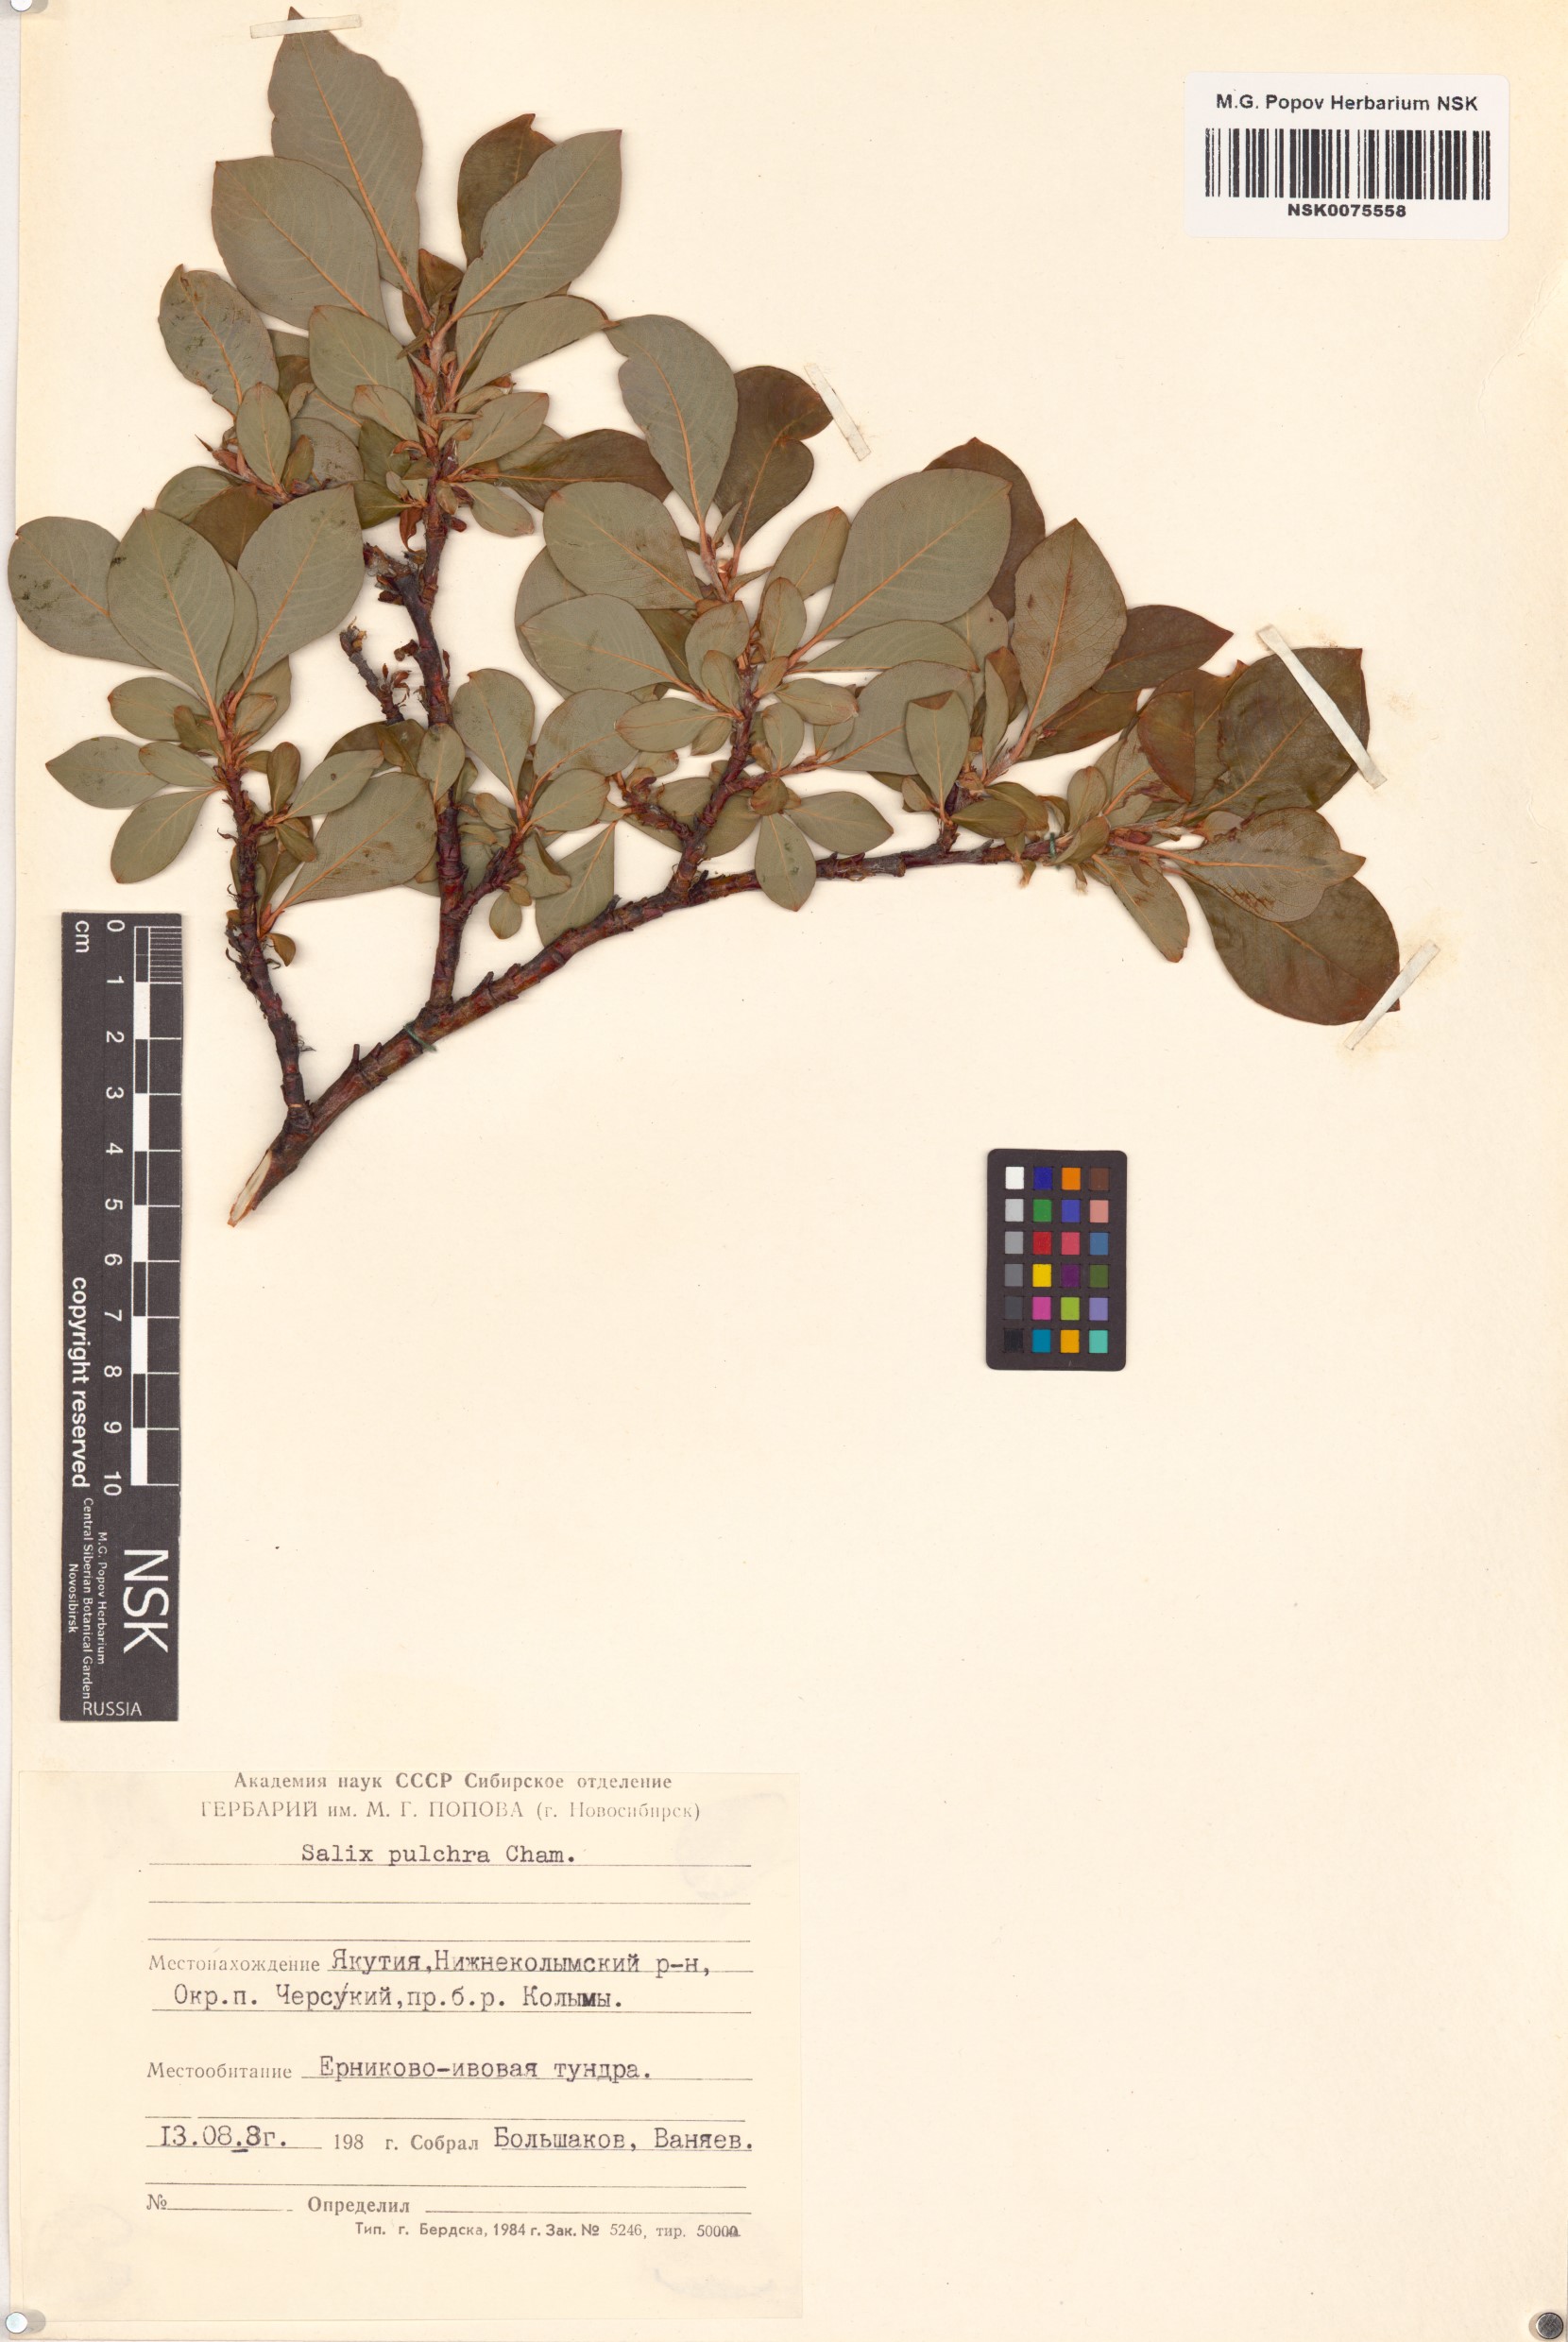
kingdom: Plantae
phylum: Tracheophyta
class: Magnoliopsida
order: Malpighiales
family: Salicaceae
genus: Salix
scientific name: Salix pulchra
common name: Diamond-leaved willow
